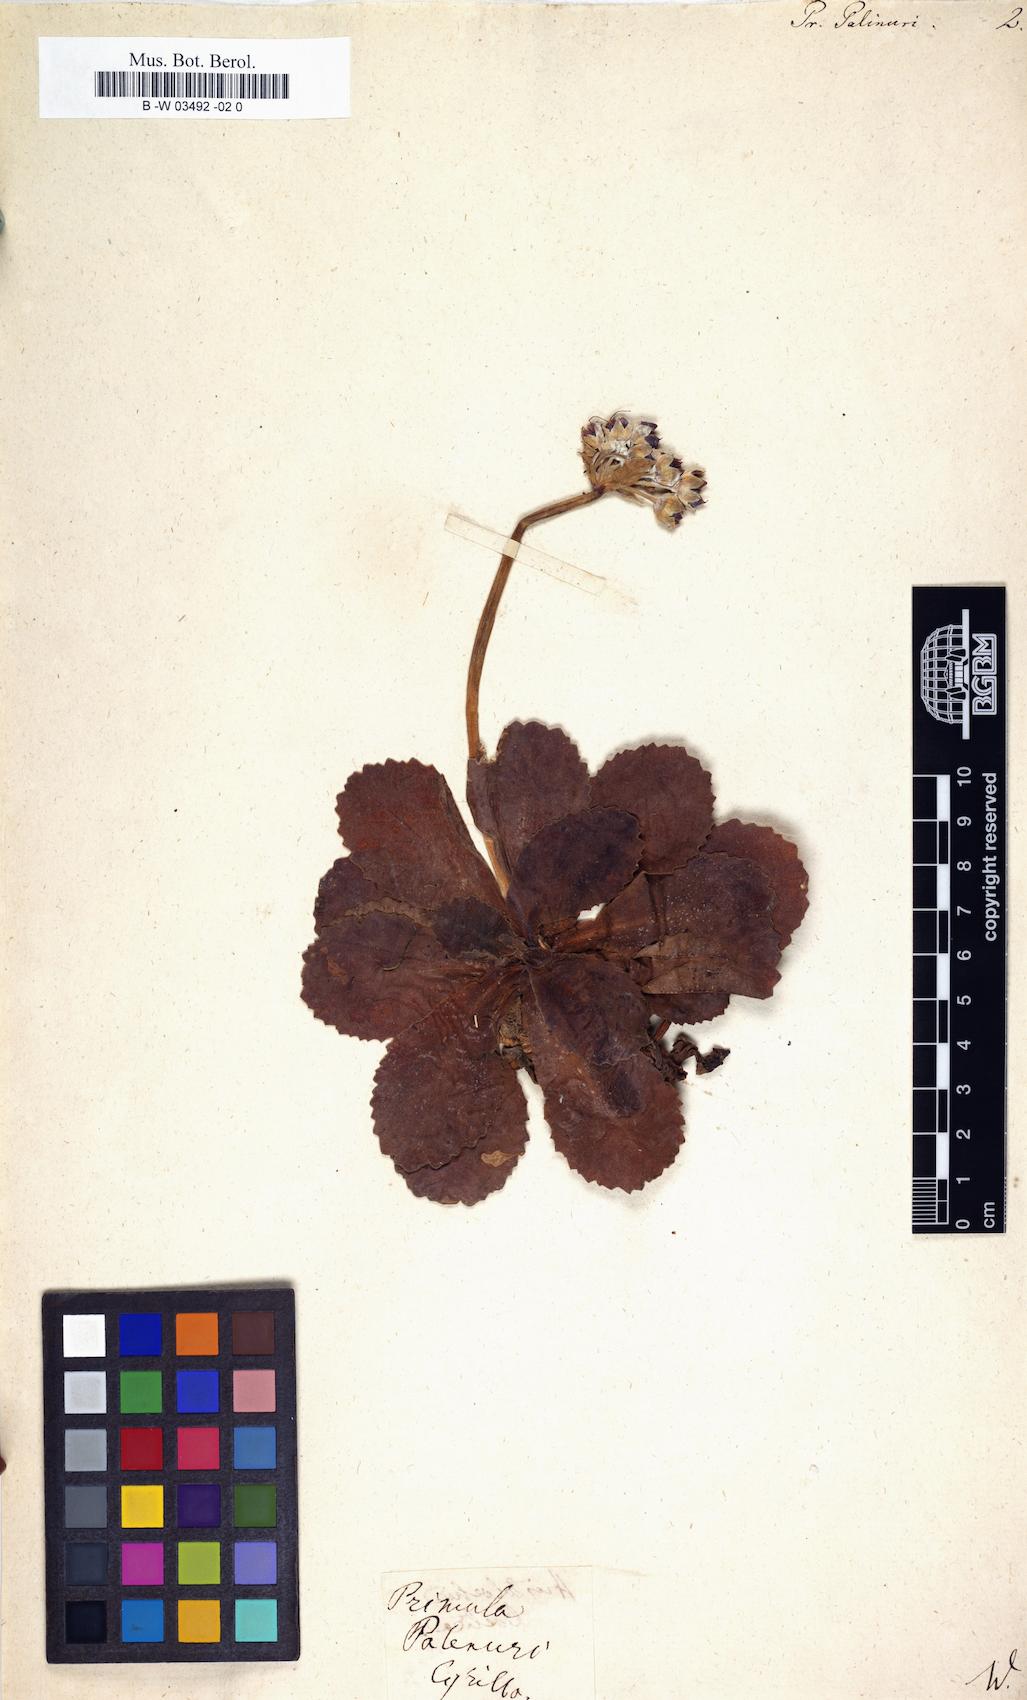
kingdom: Plantae
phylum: Tracheophyta
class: Magnoliopsida
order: Ericales
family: Primulaceae
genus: Primula
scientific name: Primula palinuri
